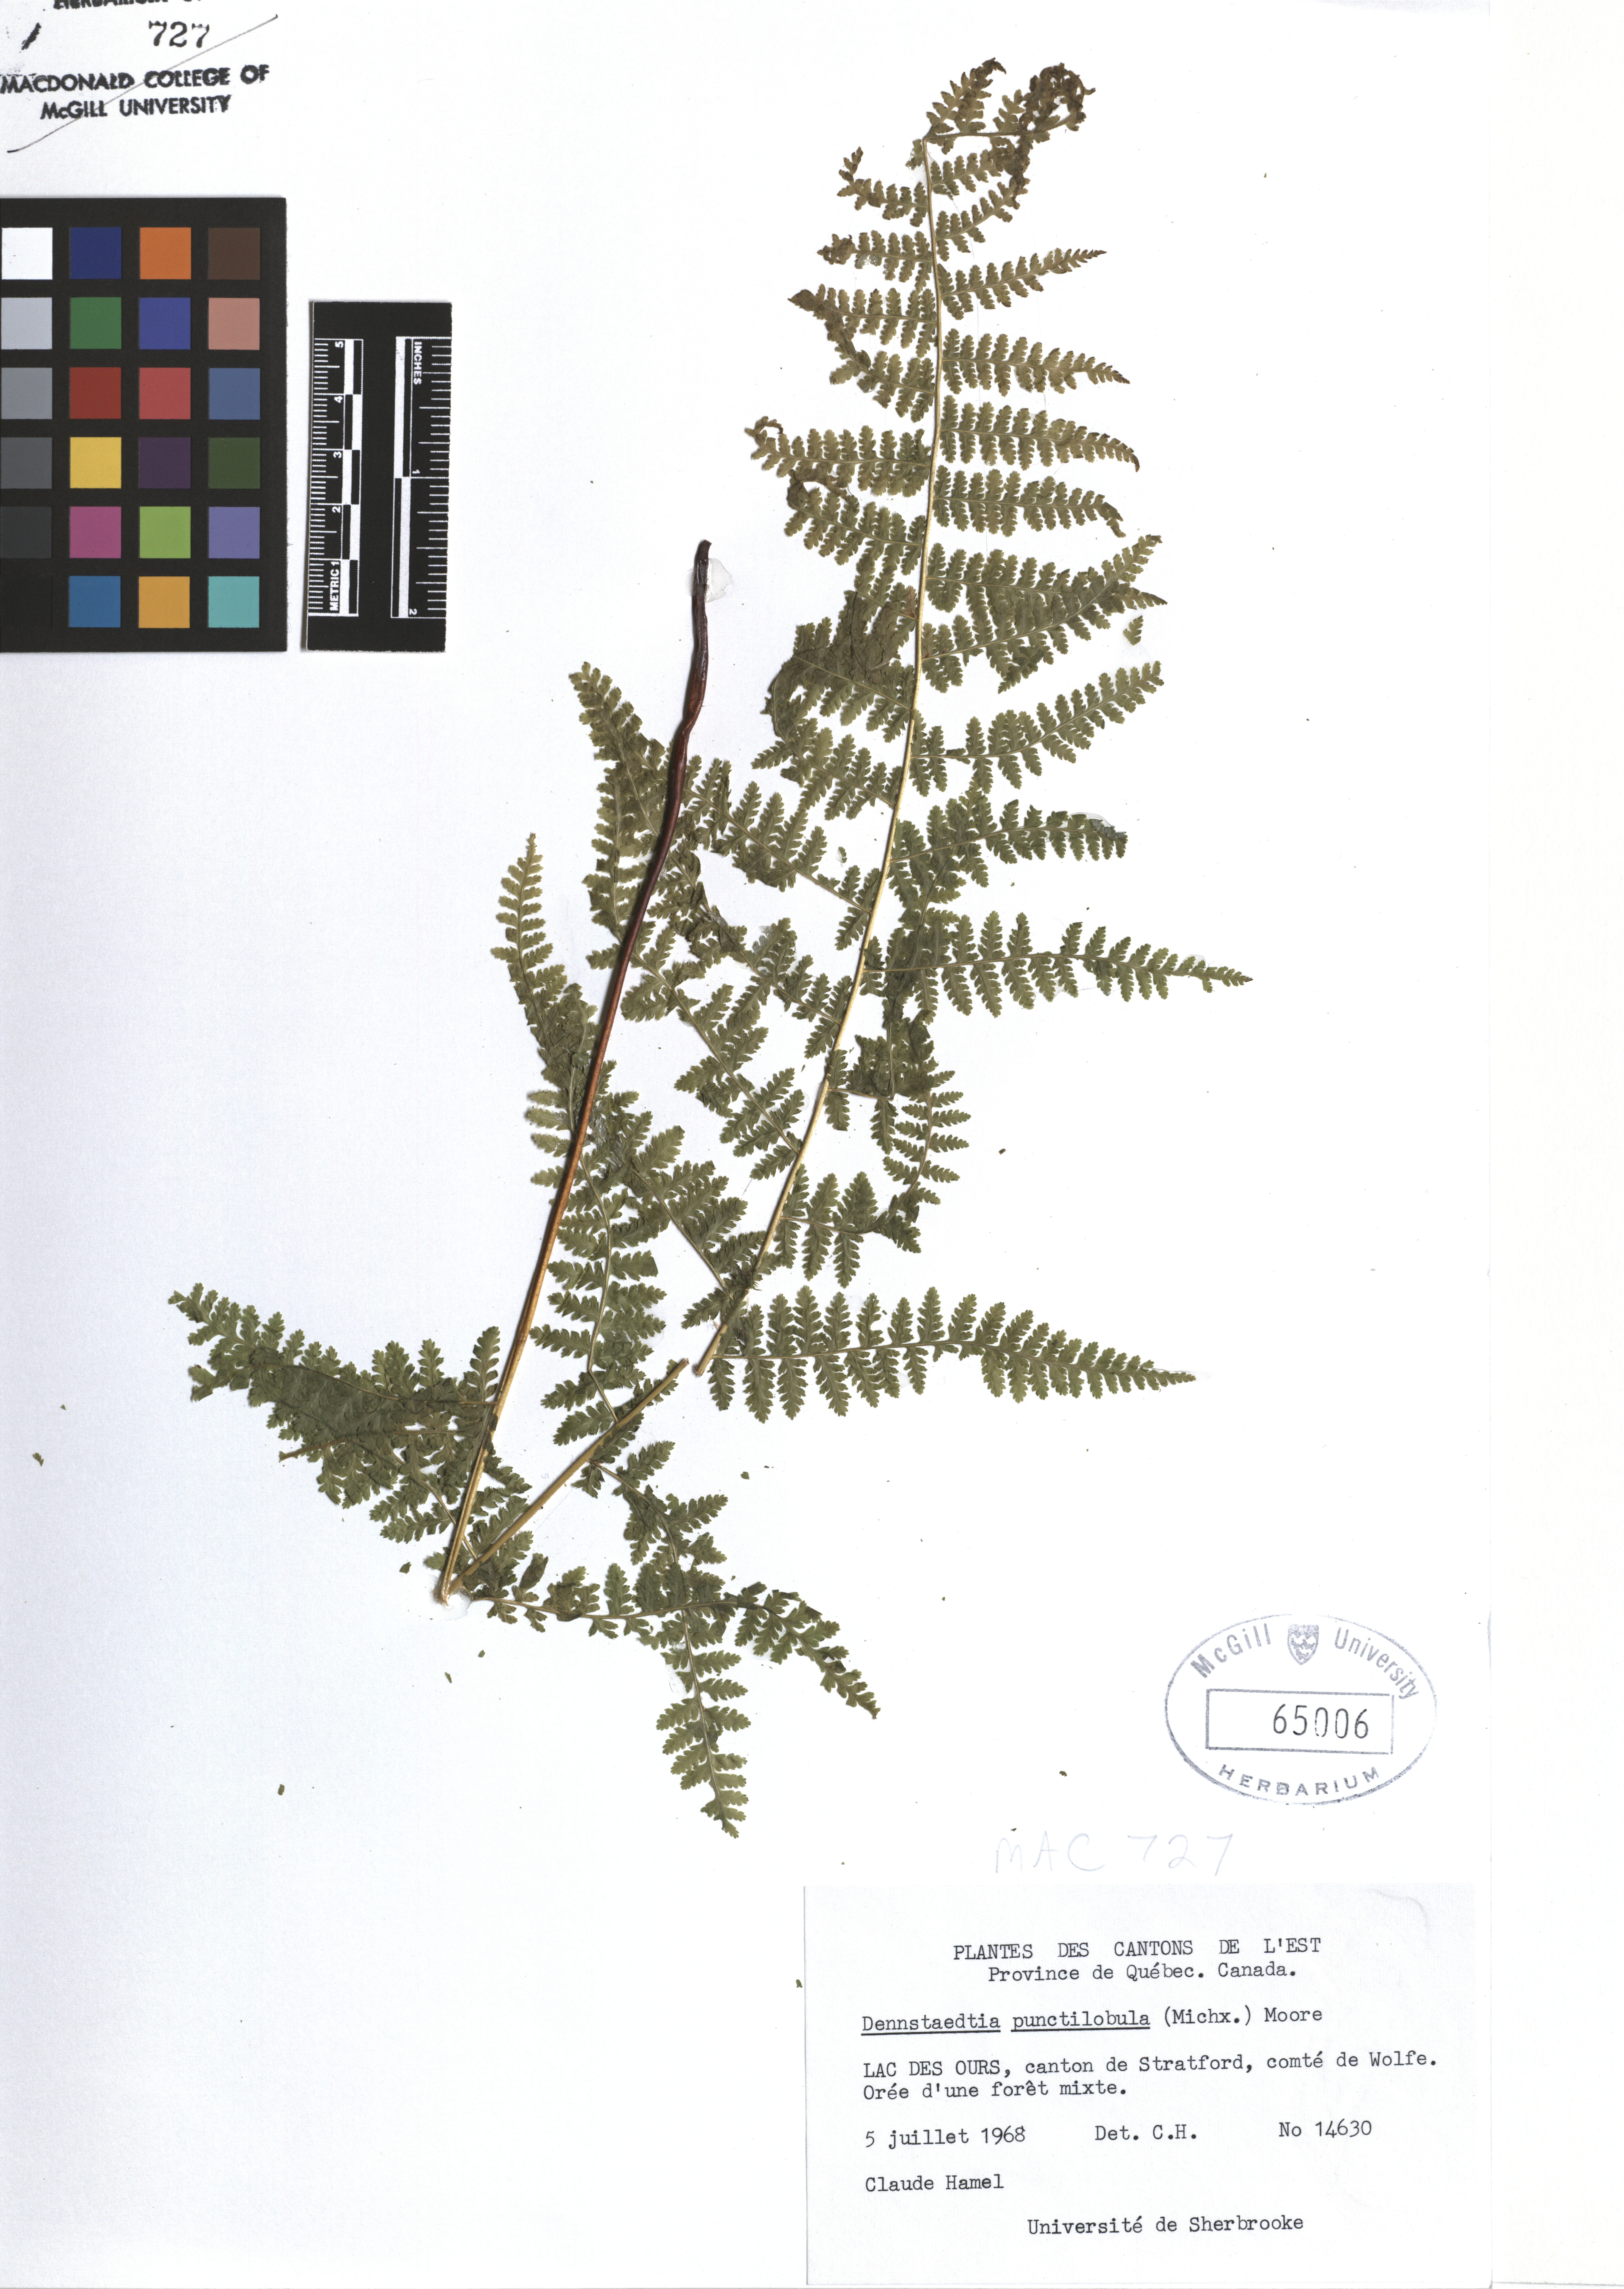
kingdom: Plantae
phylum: Tracheophyta
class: Polypodiopsida
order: Polypodiales
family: Dennstaedtiaceae
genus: Sitobolium
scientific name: Sitobolium punctilobum
